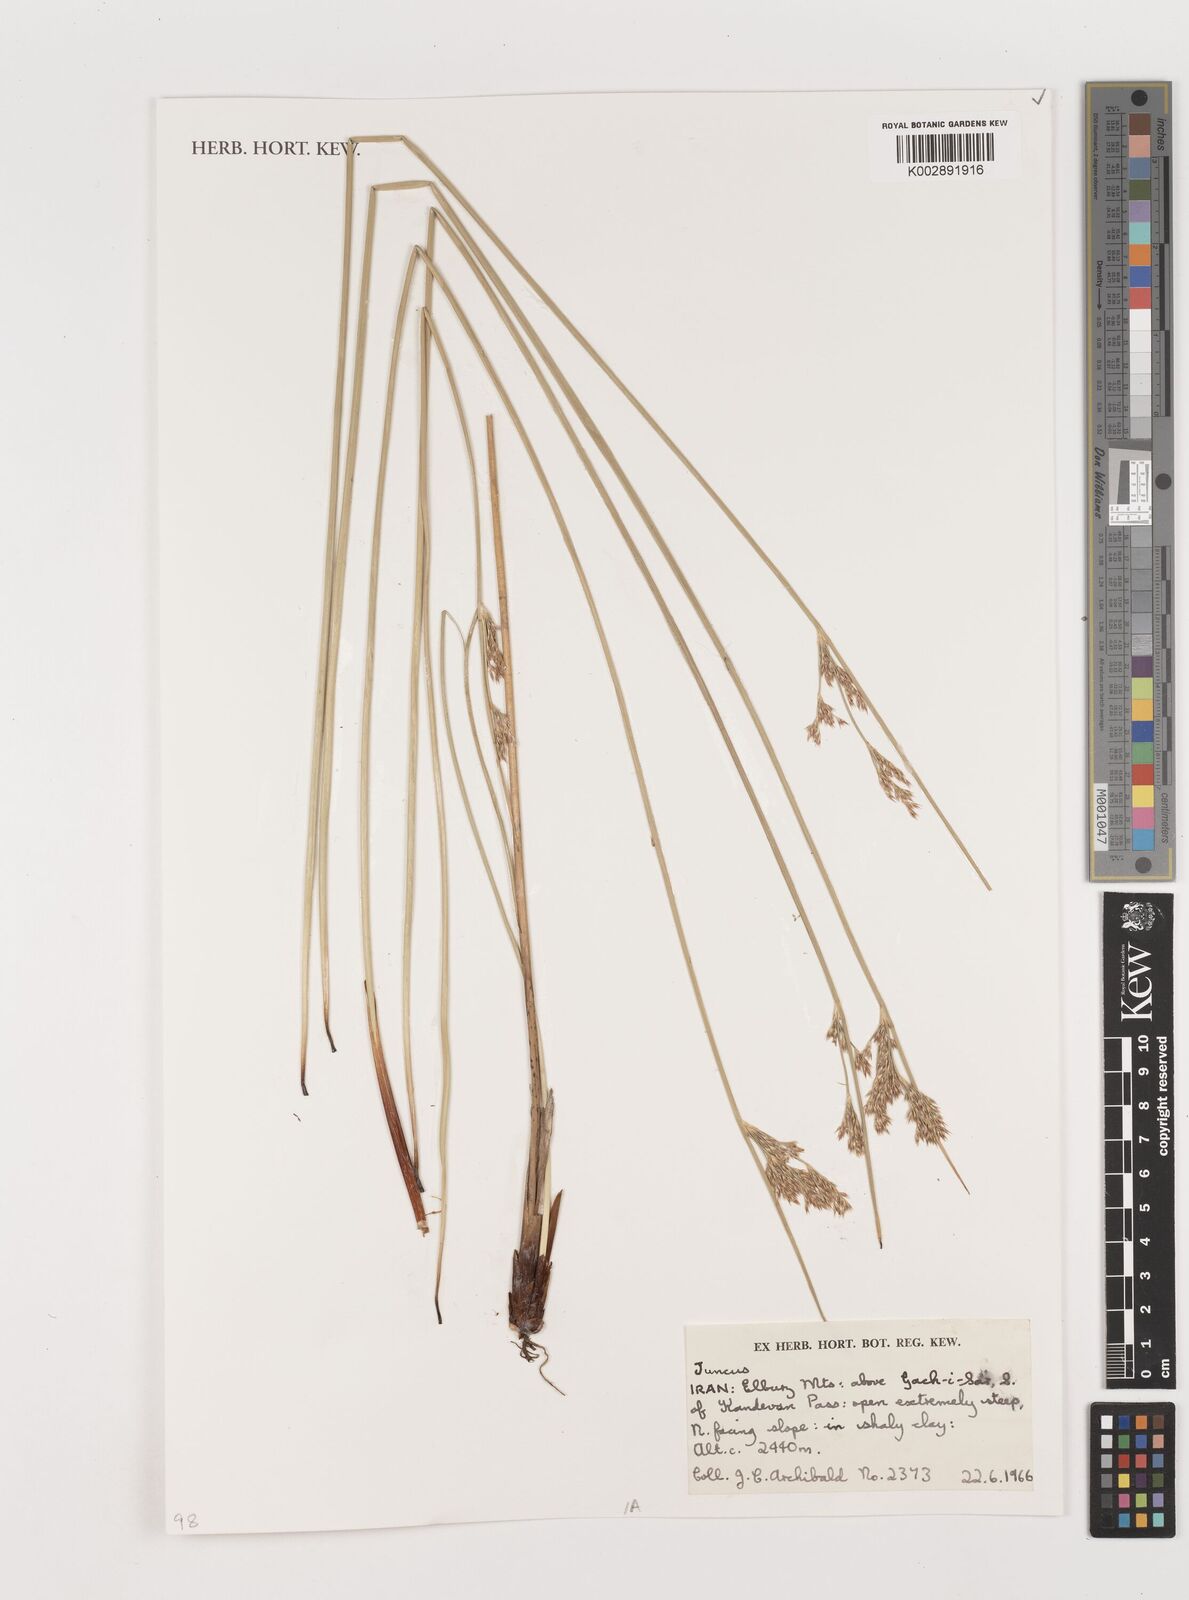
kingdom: Plantae
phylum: Tracheophyta
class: Liliopsida
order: Poales
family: Juncaceae
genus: Juncus
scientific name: Juncus
